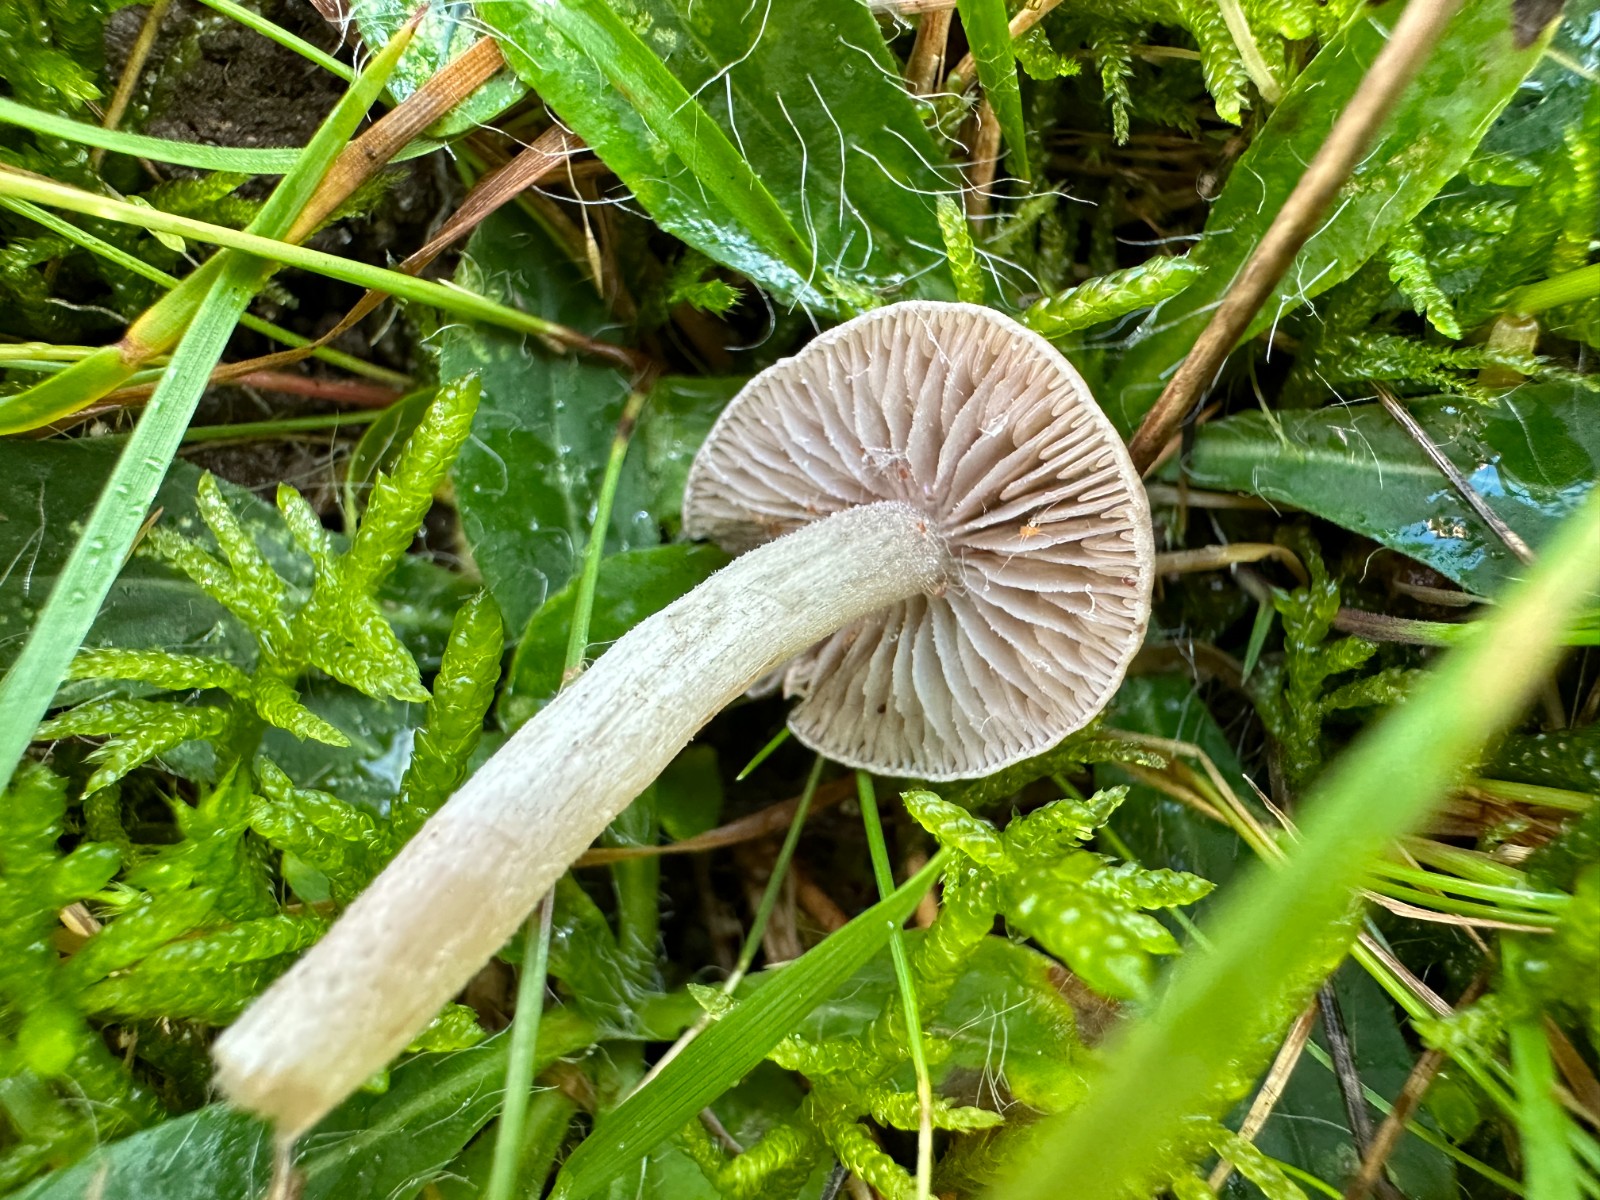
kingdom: Fungi
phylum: Basidiomycota
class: Agaricomycetes
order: Agaricales
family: Tricholomataceae
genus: Dermoloma
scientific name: Dermoloma cuneifolium
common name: eng-nonnehat
